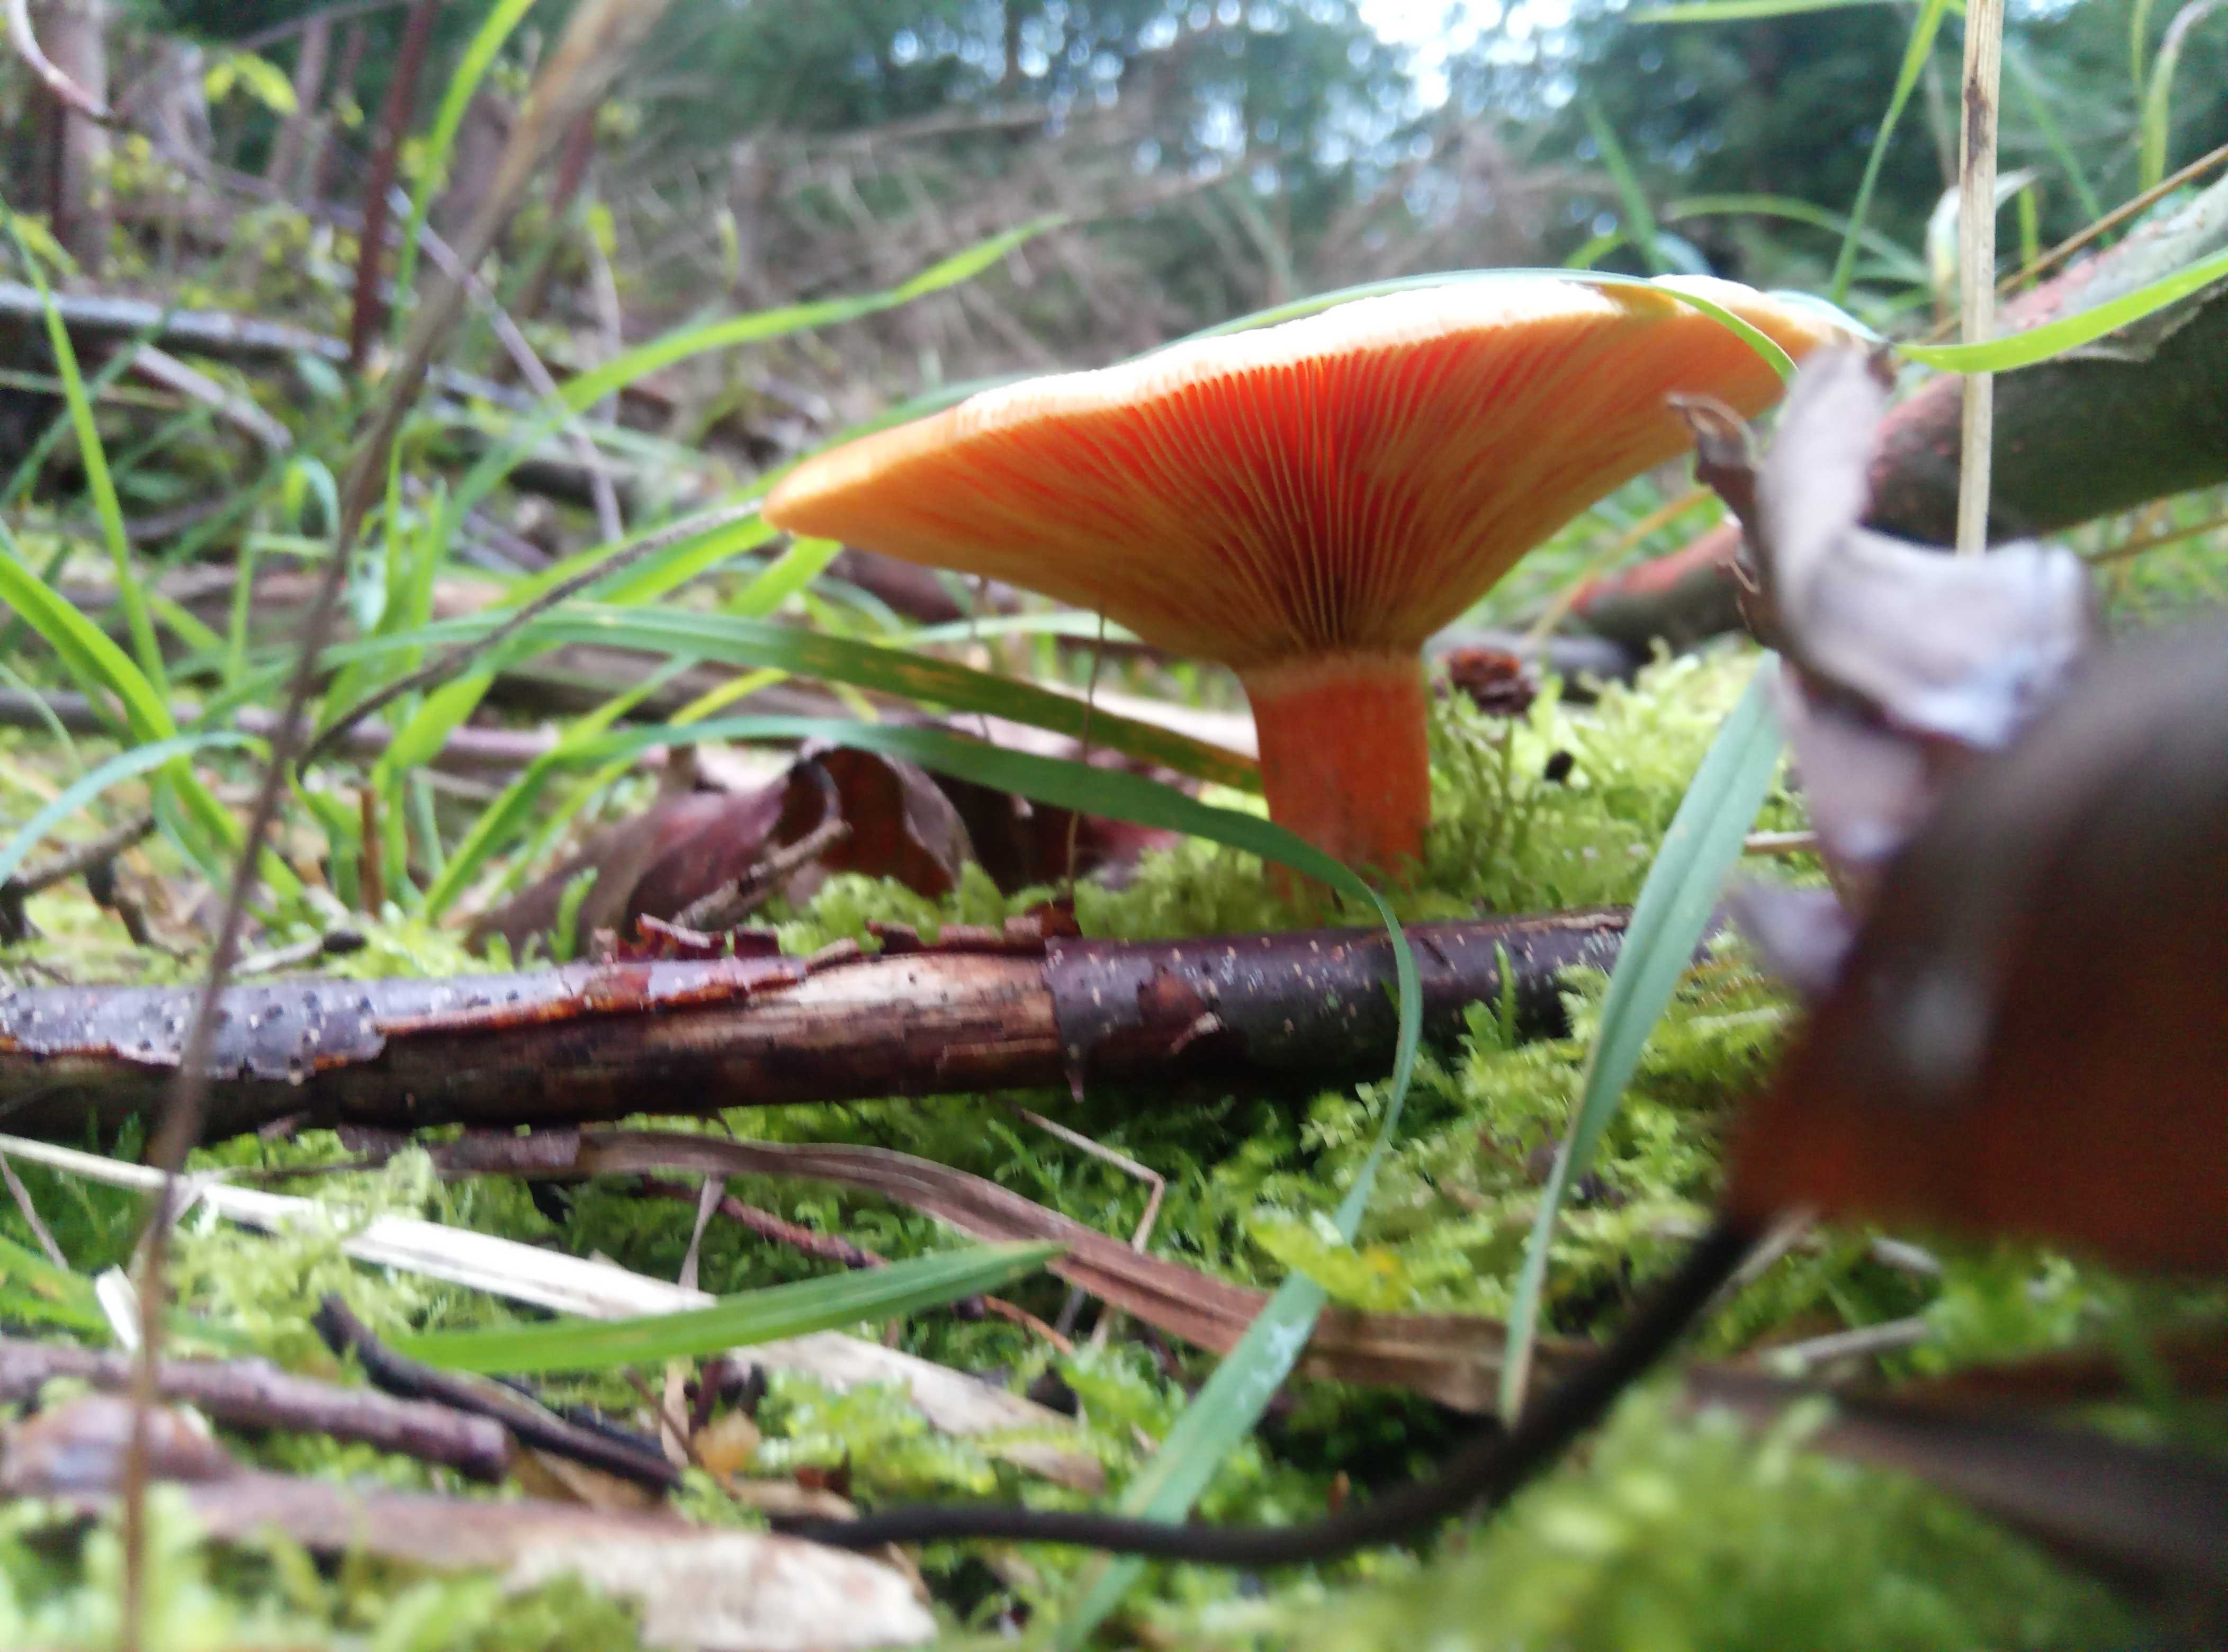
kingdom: Fungi
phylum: Basidiomycota
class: Agaricomycetes
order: Russulales
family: Russulaceae
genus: Lactarius
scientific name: Lactarius deterrimus
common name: gran-mælkehat
